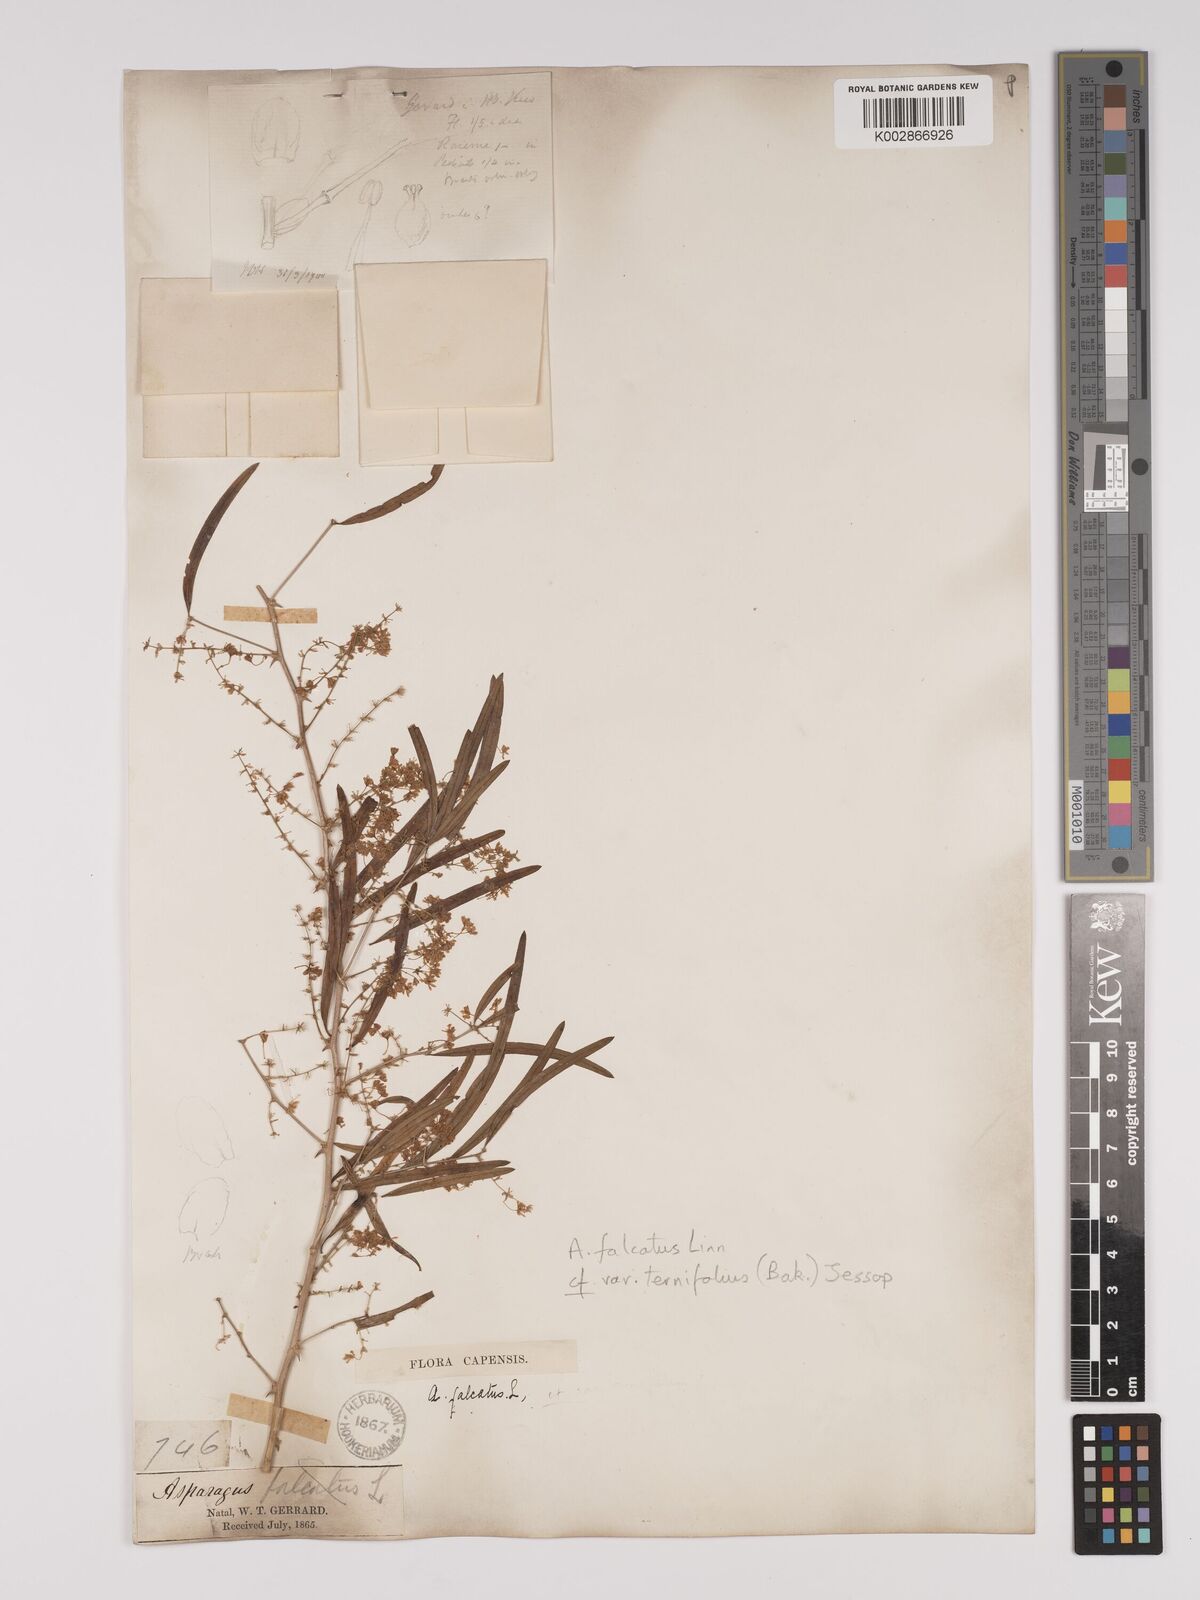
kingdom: Plantae
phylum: Tracheophyta
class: Liliopsida
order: Asparagales
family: Asparagaceae
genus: Asparagus
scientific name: Asparagus falcatus
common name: Asparagus
